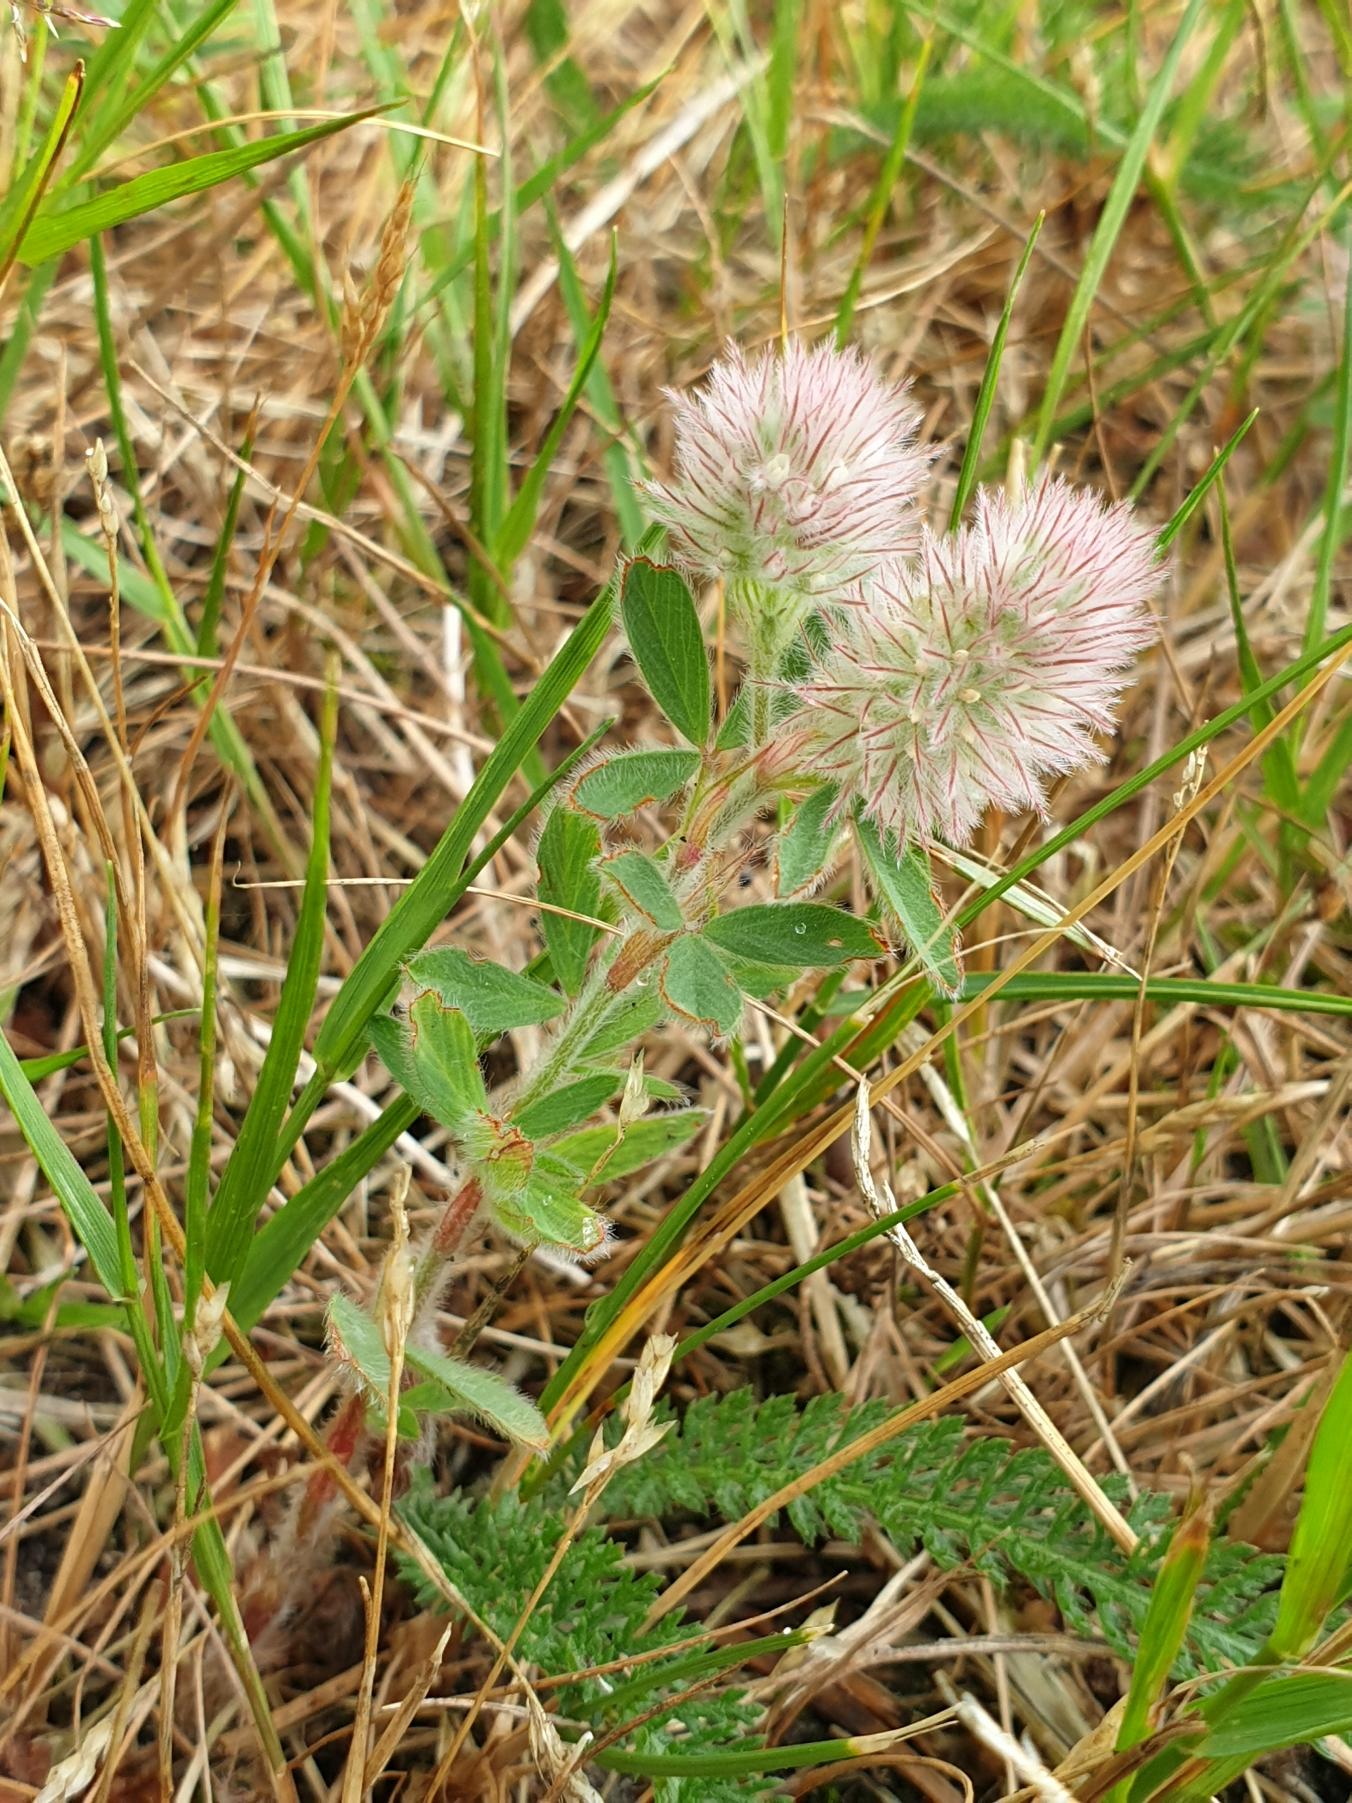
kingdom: Plantae
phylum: Tracheophyta
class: Magnoliopsida
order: Fabales
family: Fabaceae
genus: Trifolium
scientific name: Trifolium arvense
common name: Hare-kløver
